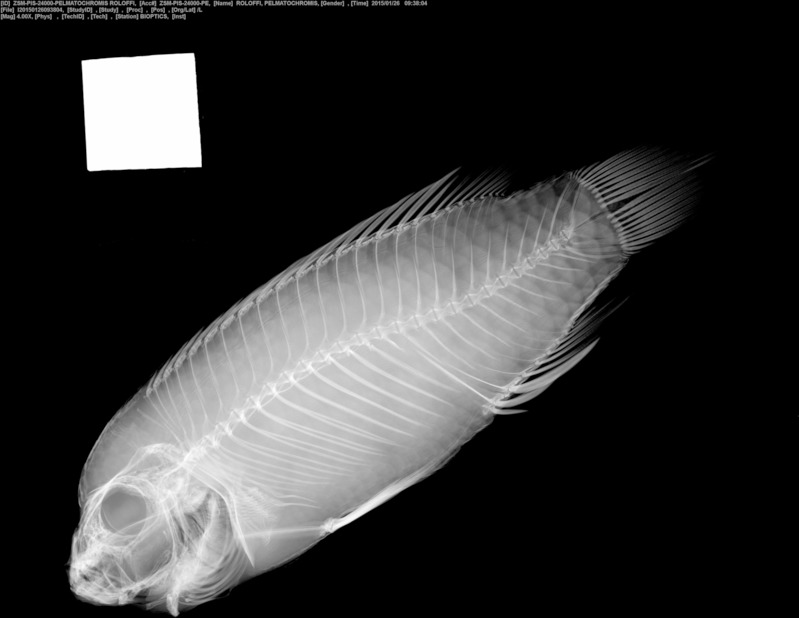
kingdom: Animalia
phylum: Chordata
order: Perciformes
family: Cichlidae
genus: Pelvicachromis
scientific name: Pelvicachromis roloffi
